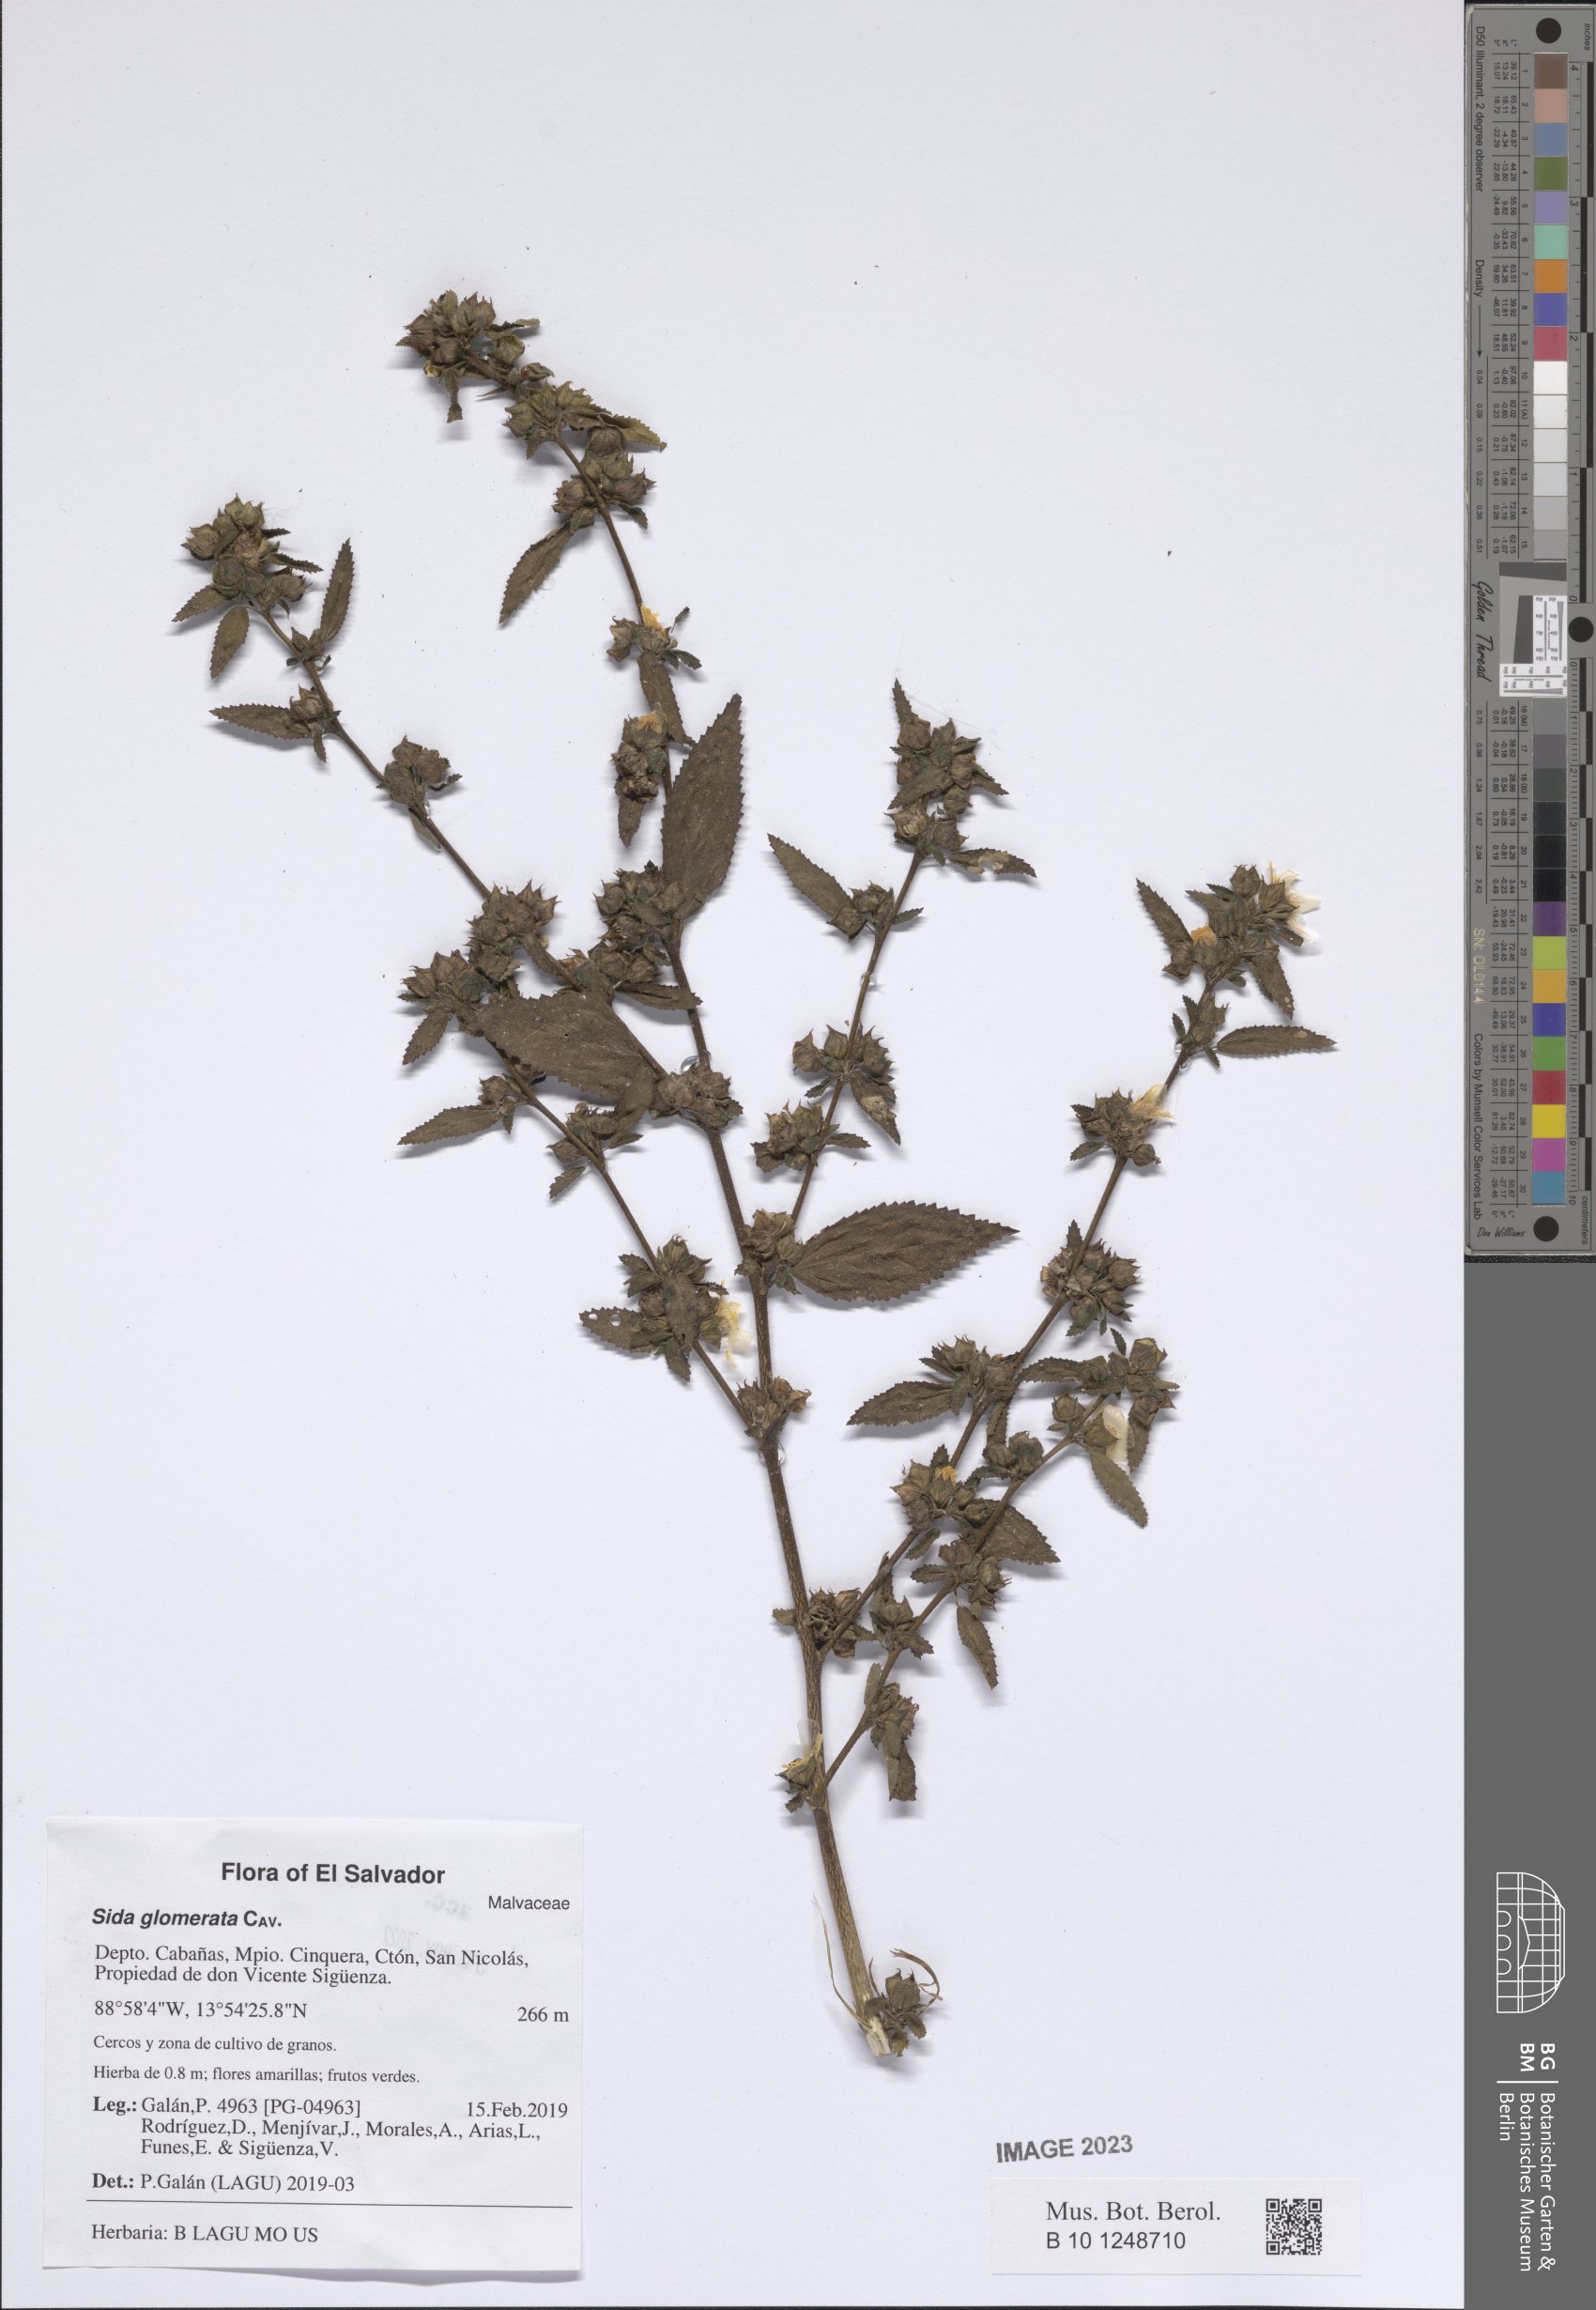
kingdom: Plantae
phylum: Tracheophyta
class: Magnoliopsida
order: Malvales
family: Malvaceae
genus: Sida
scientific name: Sida glomerata
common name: Clustered fanpetals
